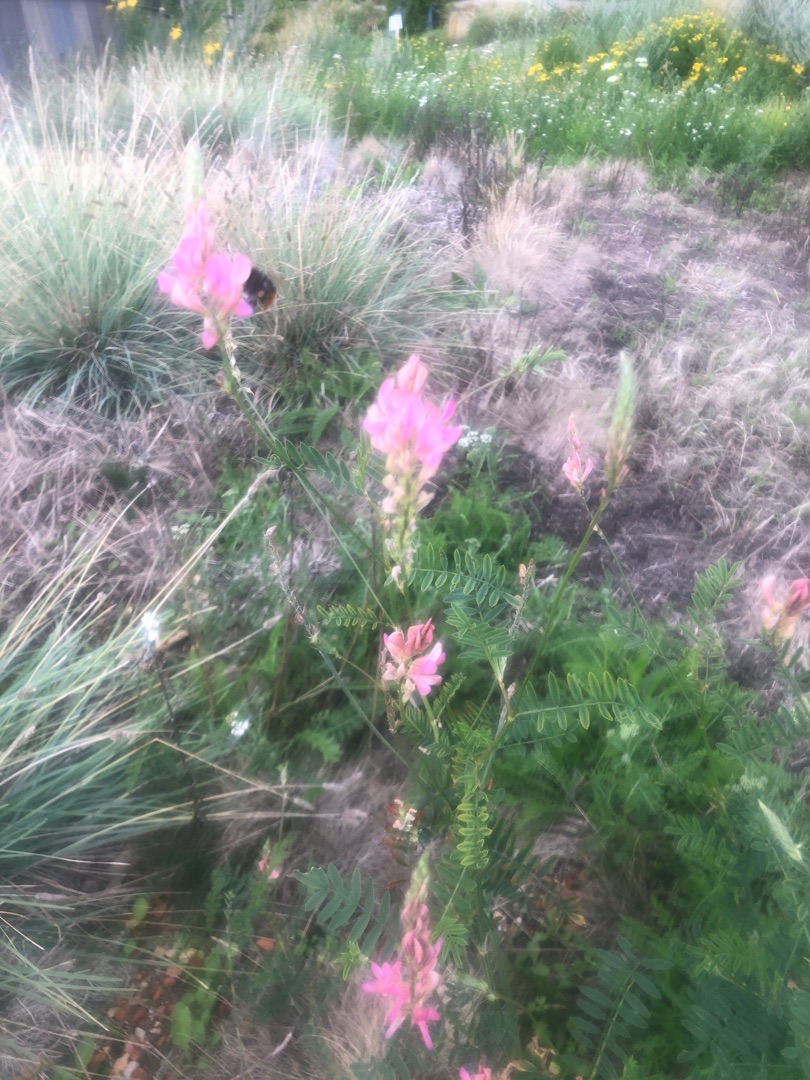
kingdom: Plantae
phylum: Tracheophyta
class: Magnoliopsida
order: Fabales
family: Fabaceae
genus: Onobrychis
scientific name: Onobrychis viciifolia
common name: Esparsette
